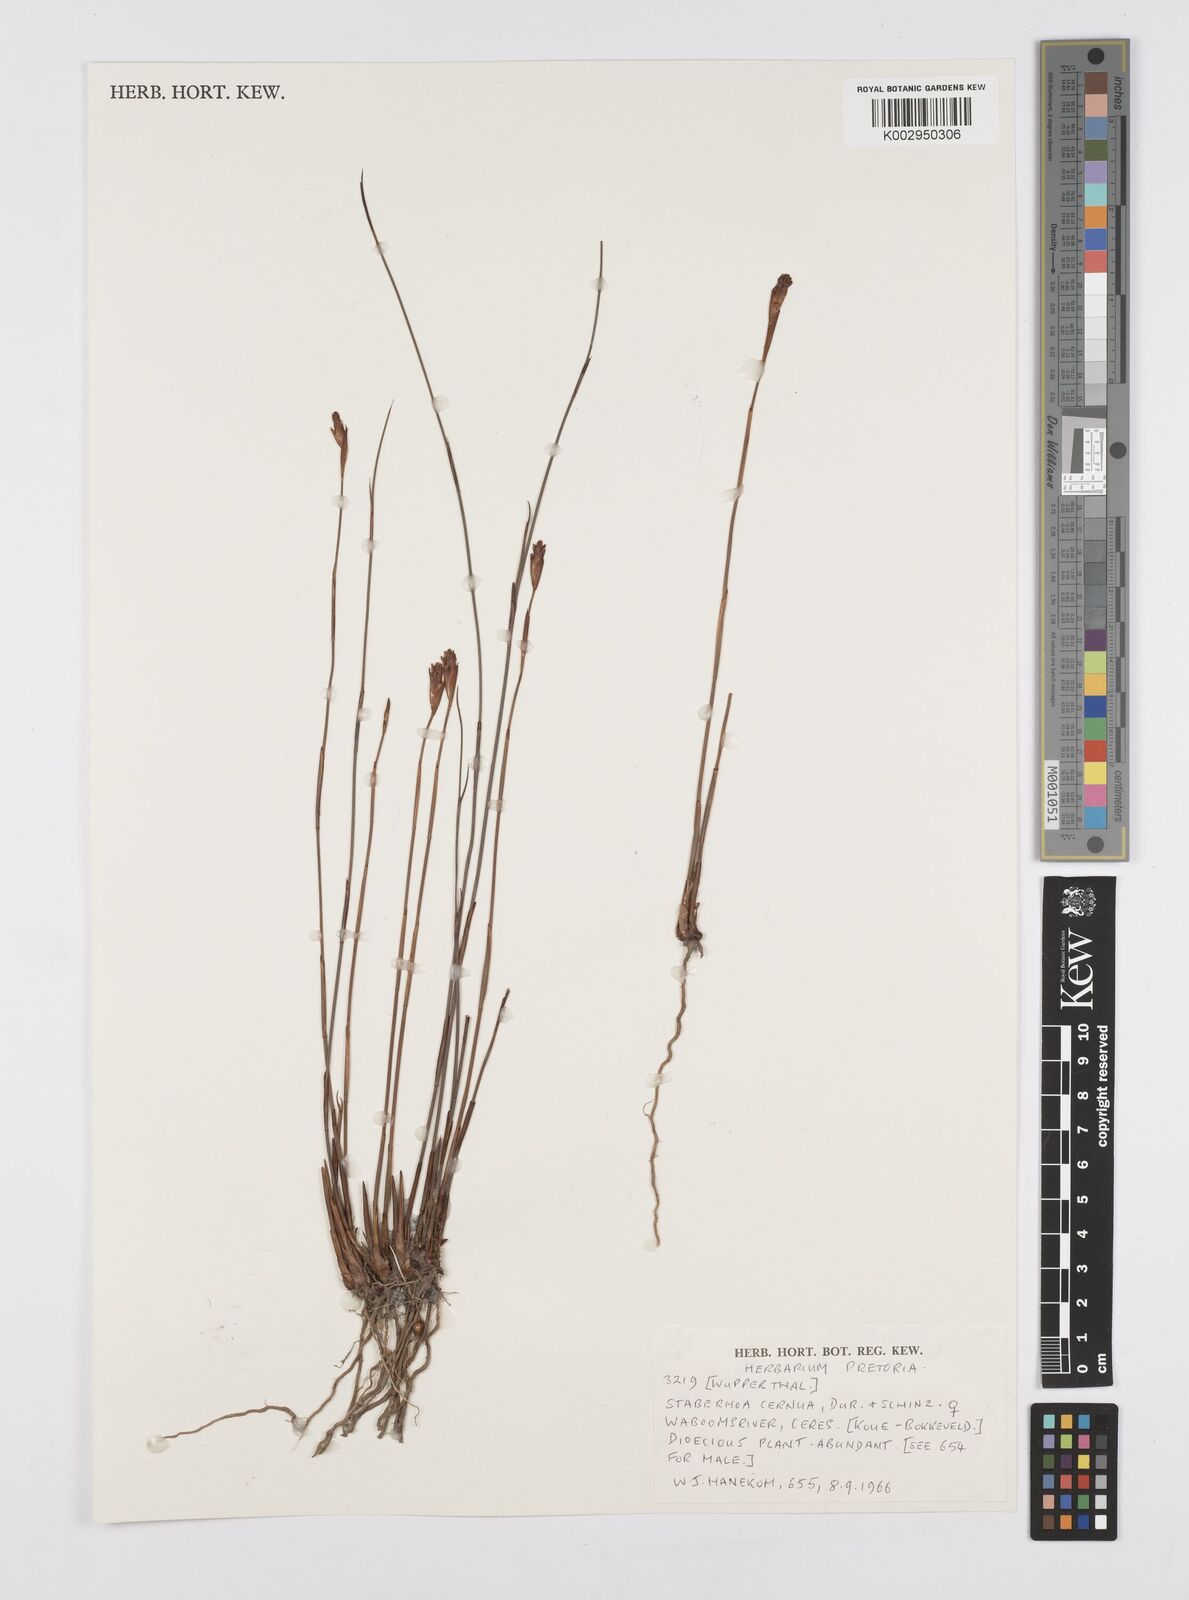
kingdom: Plantae
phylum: Tracheophyta
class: Liliopsida
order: Poales
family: Restionaceae
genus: Staberoha
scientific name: Staberoha cernua
